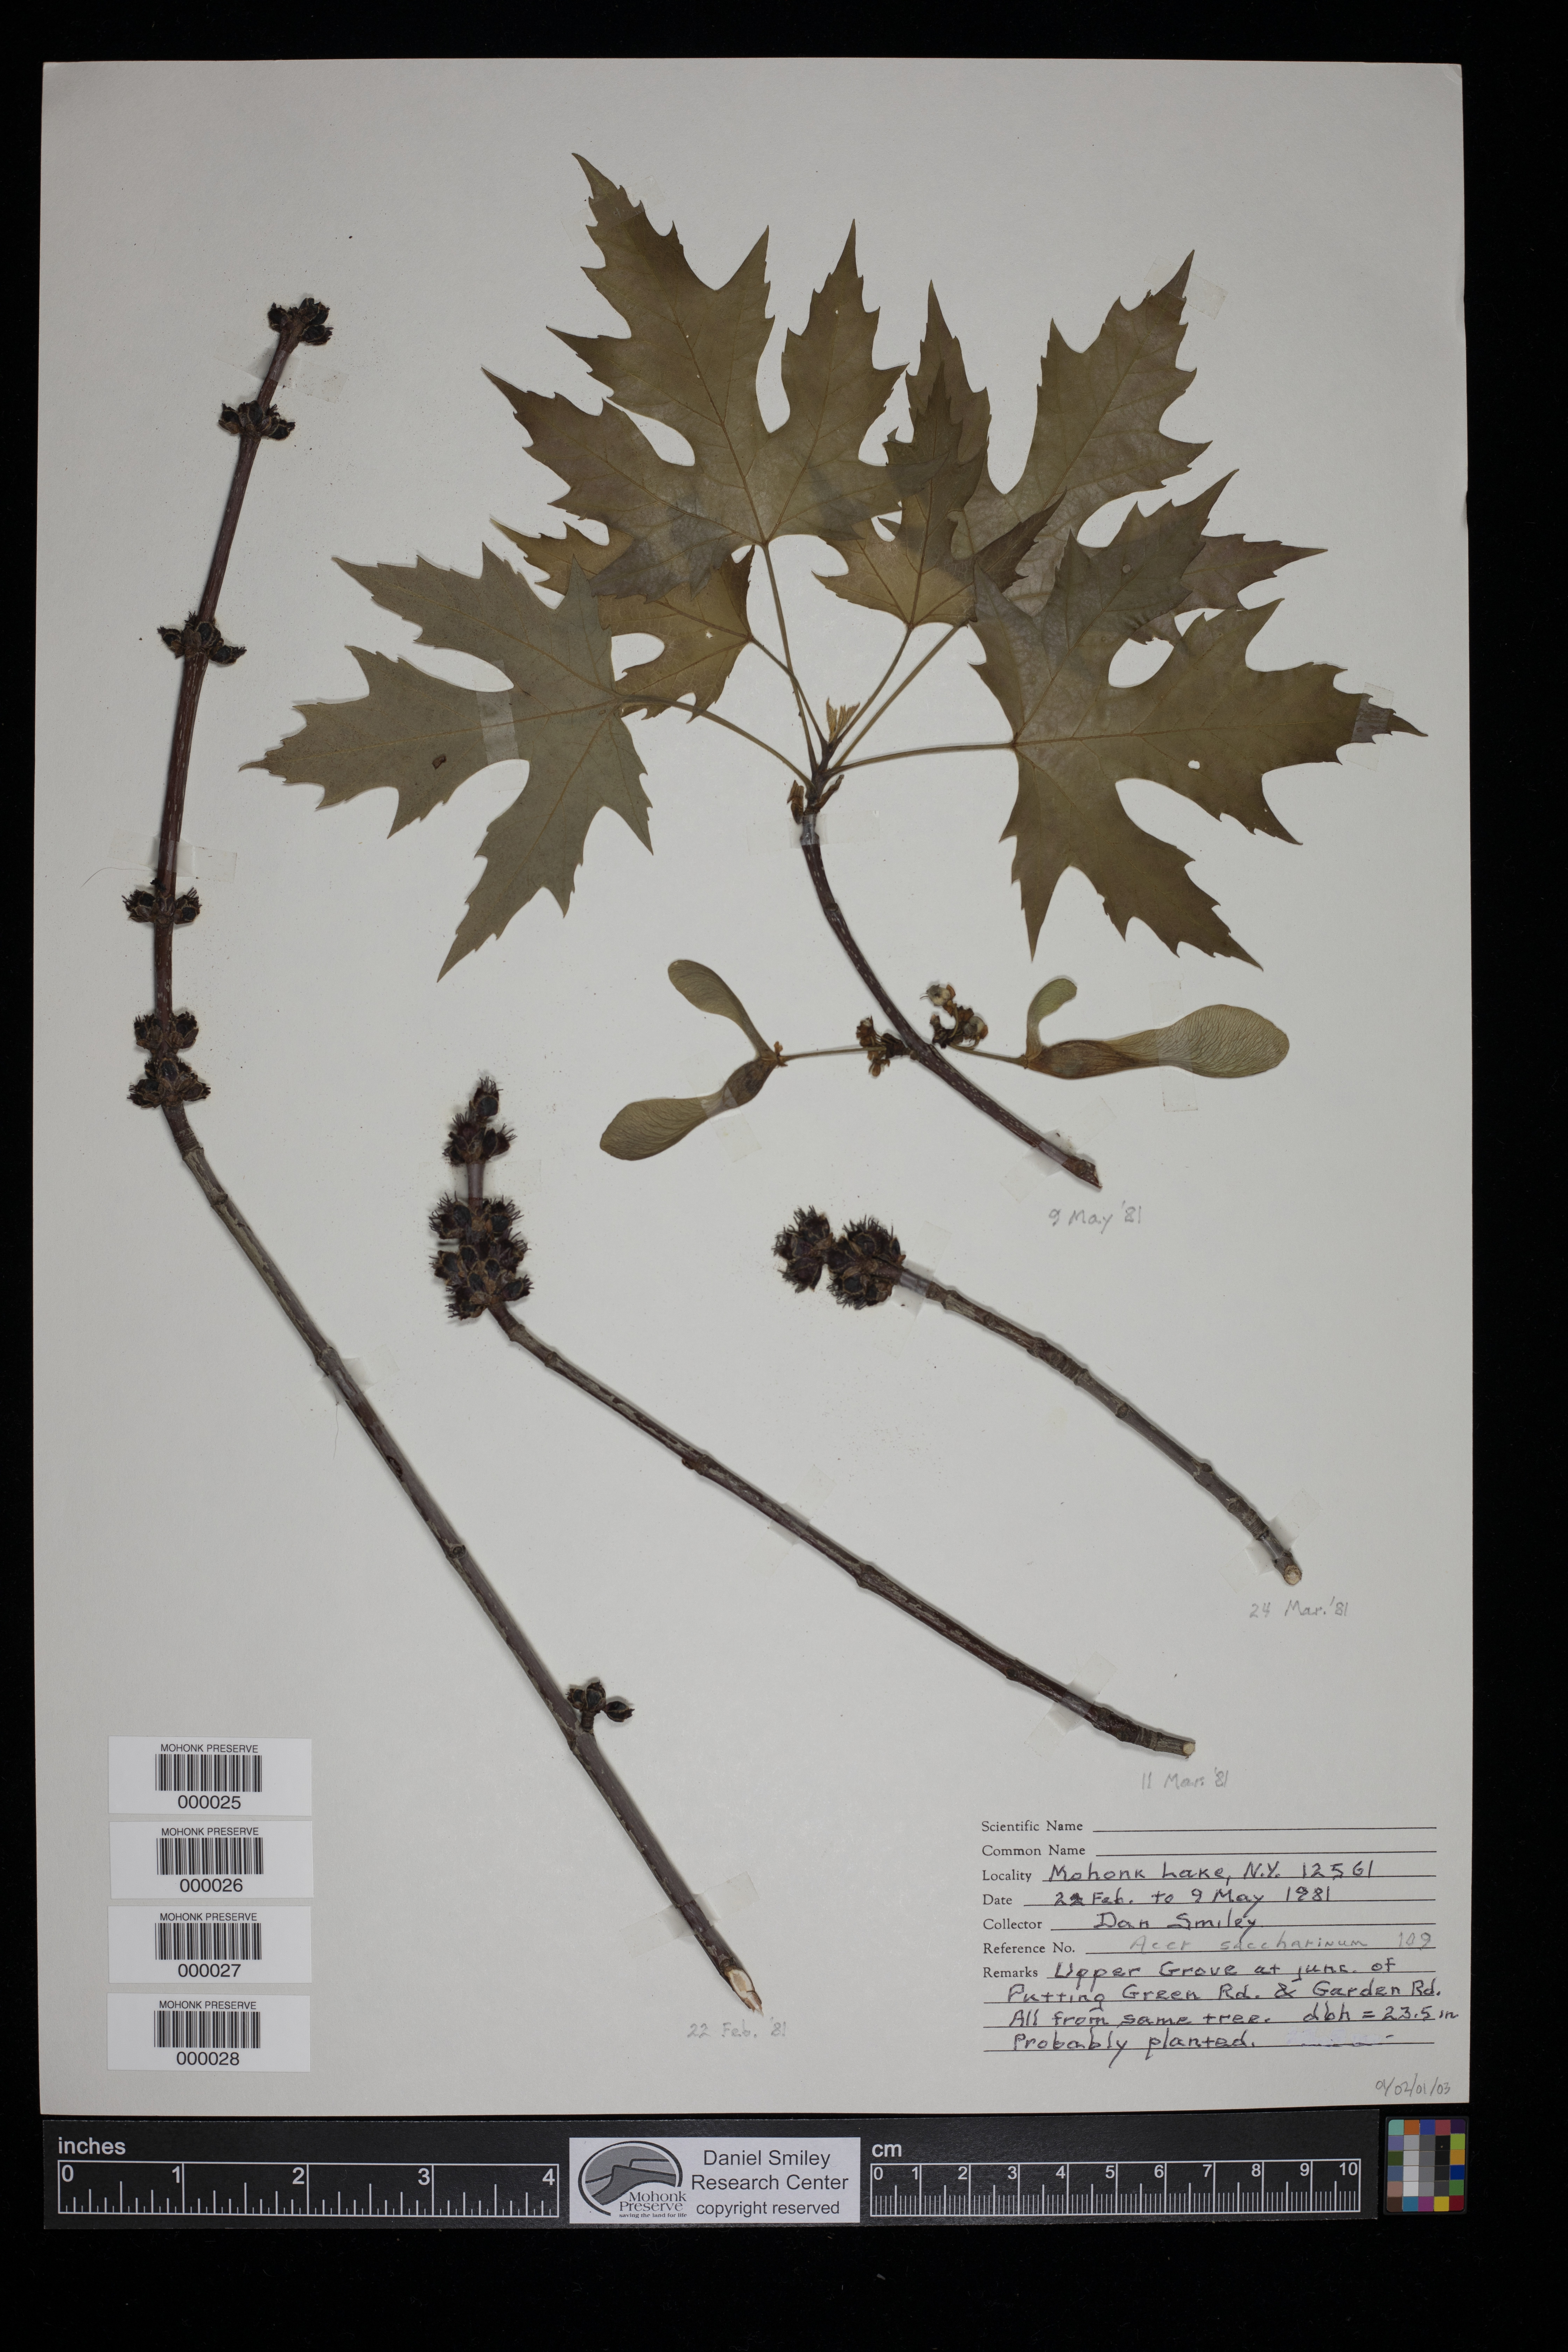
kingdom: Plantae
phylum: Tracheophyta
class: Magnoliopsida
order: Sapindales
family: Sapindaceae
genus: Acer
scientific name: Acer saccharinum
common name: Silver maple
